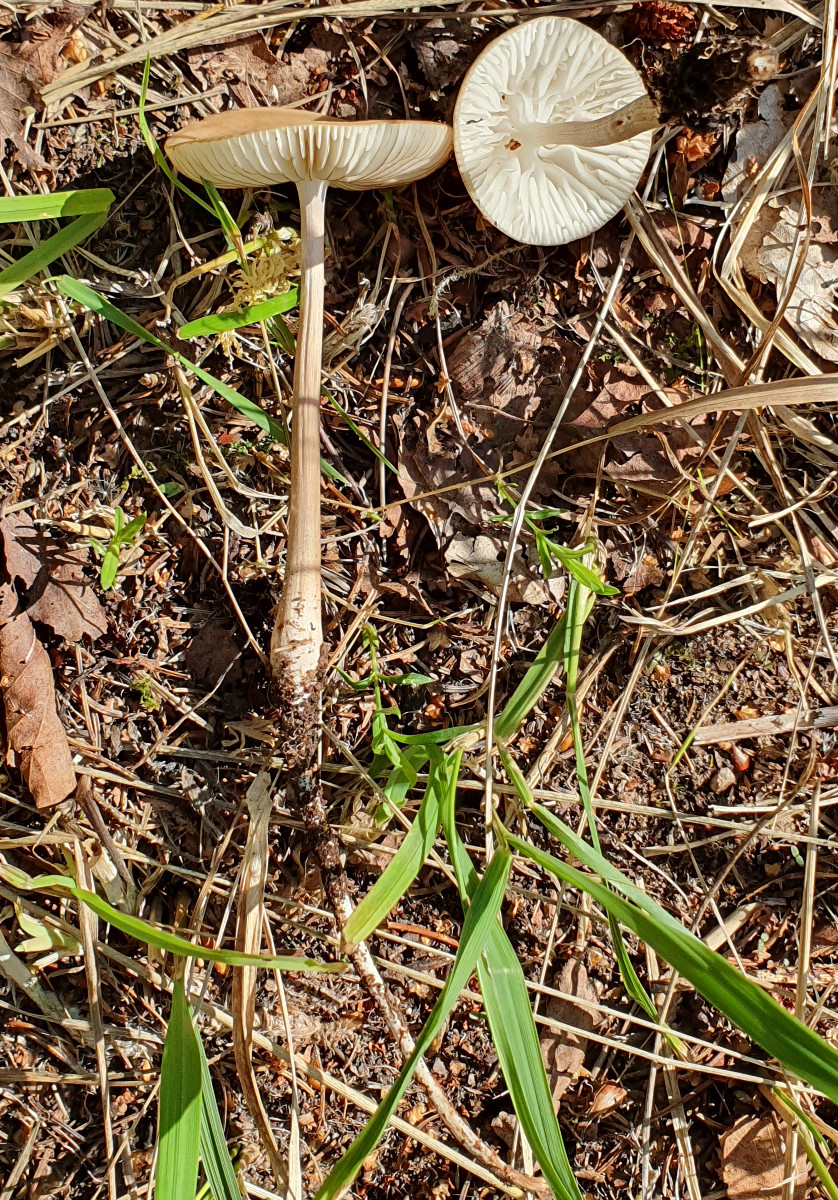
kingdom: Fungi
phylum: Basidiomycota
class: Agaricomycetes
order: Agaricales
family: Physalacriaceae
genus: Hymenopellis
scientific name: Hymenopellis radicata
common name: almindelig pælerodshat
